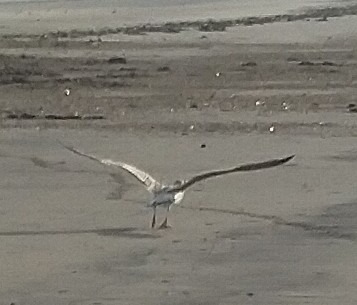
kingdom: Animalia
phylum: Chordata
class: Aves
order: Charadriiformes
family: Laridae
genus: Larus
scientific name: Larus marinus
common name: Svartbag
